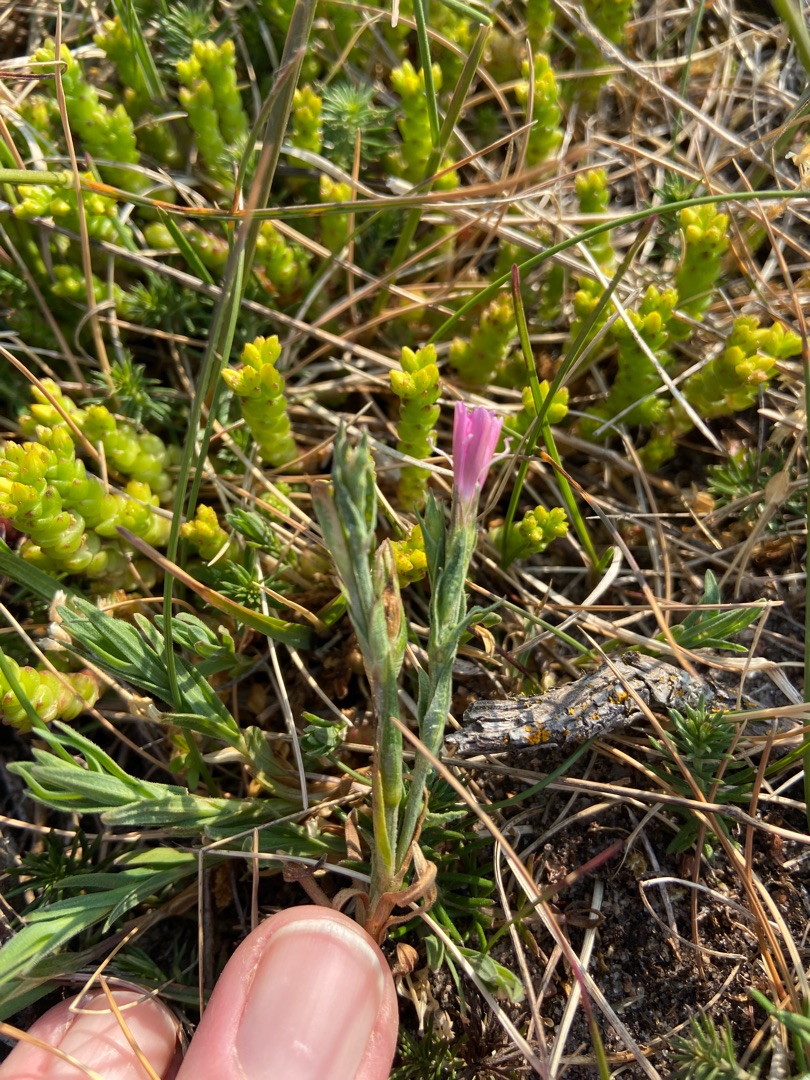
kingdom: Plantae
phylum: Tracheophyta
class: Magnoliopsida
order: Caryophyllales
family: Caryophyllaceae
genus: Dianthus
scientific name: Dianthus deltoides
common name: Bakke-nellike
